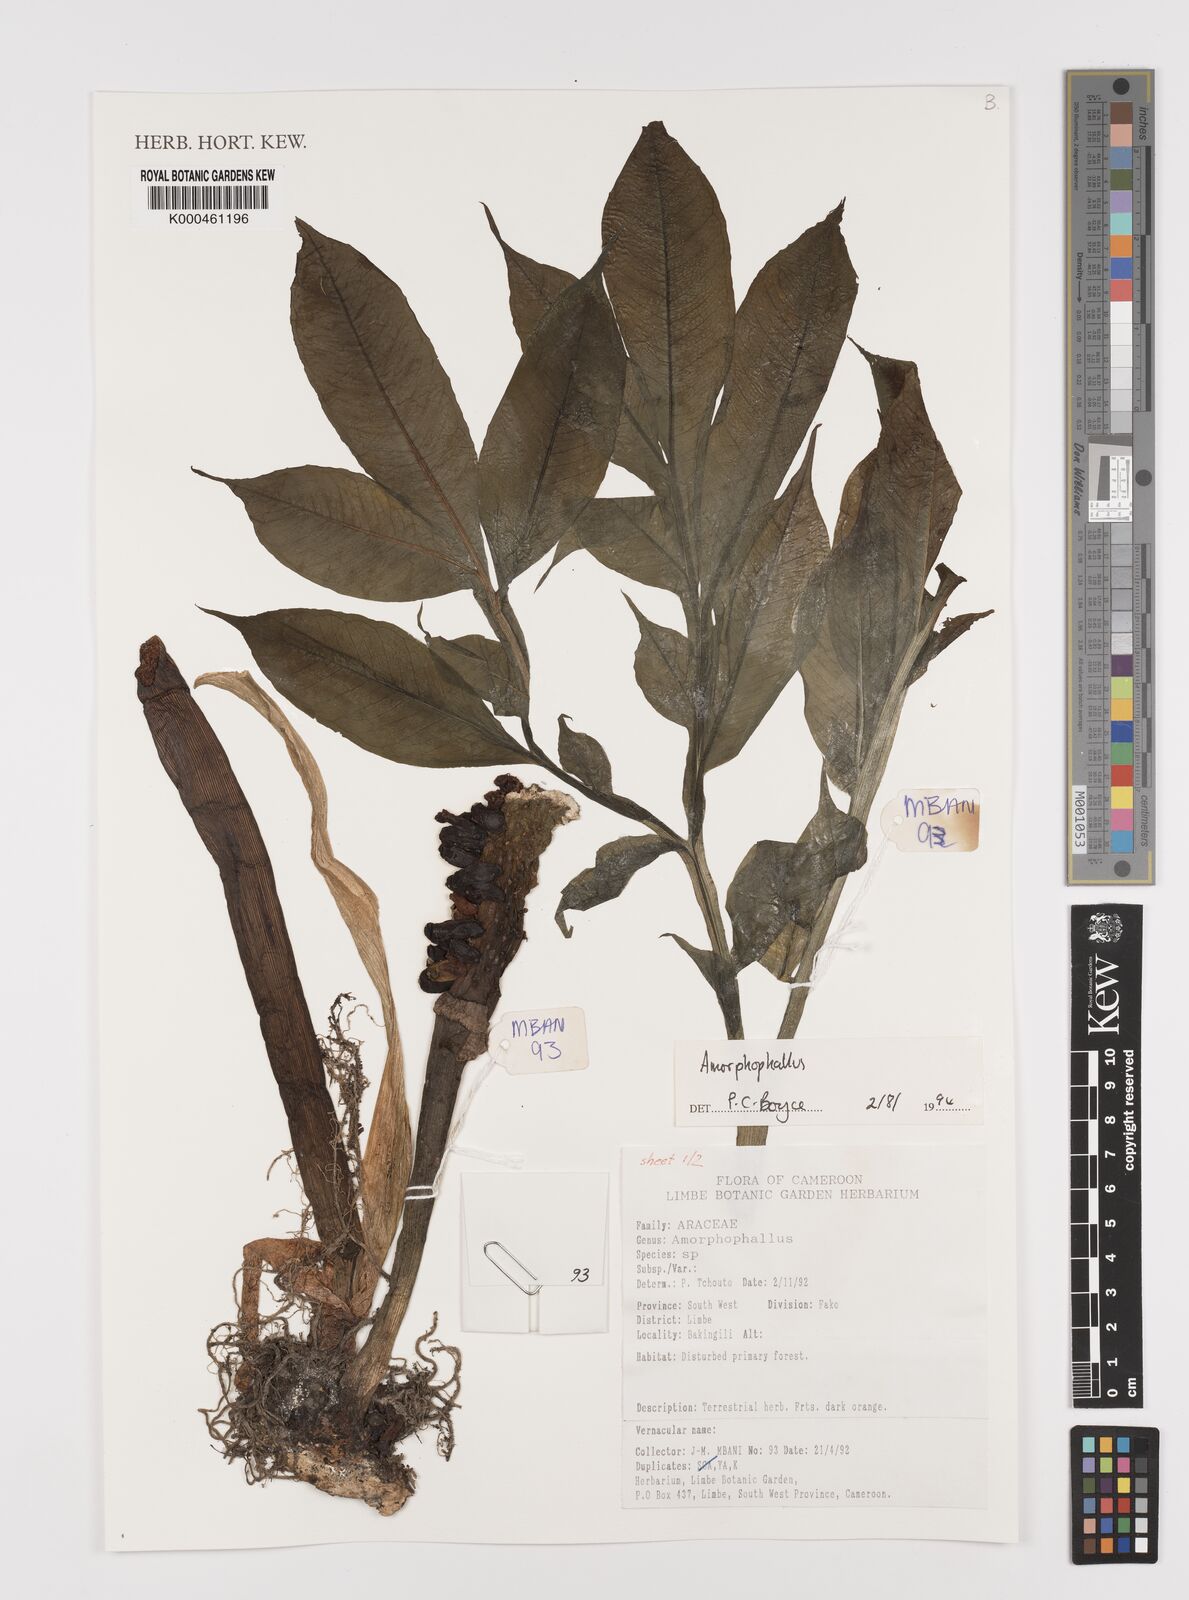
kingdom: Plantae
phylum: Tracheophyta
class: Liliopsida
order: Alismatales
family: Araceae
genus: Amorphophallus
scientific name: Amorphophallus
